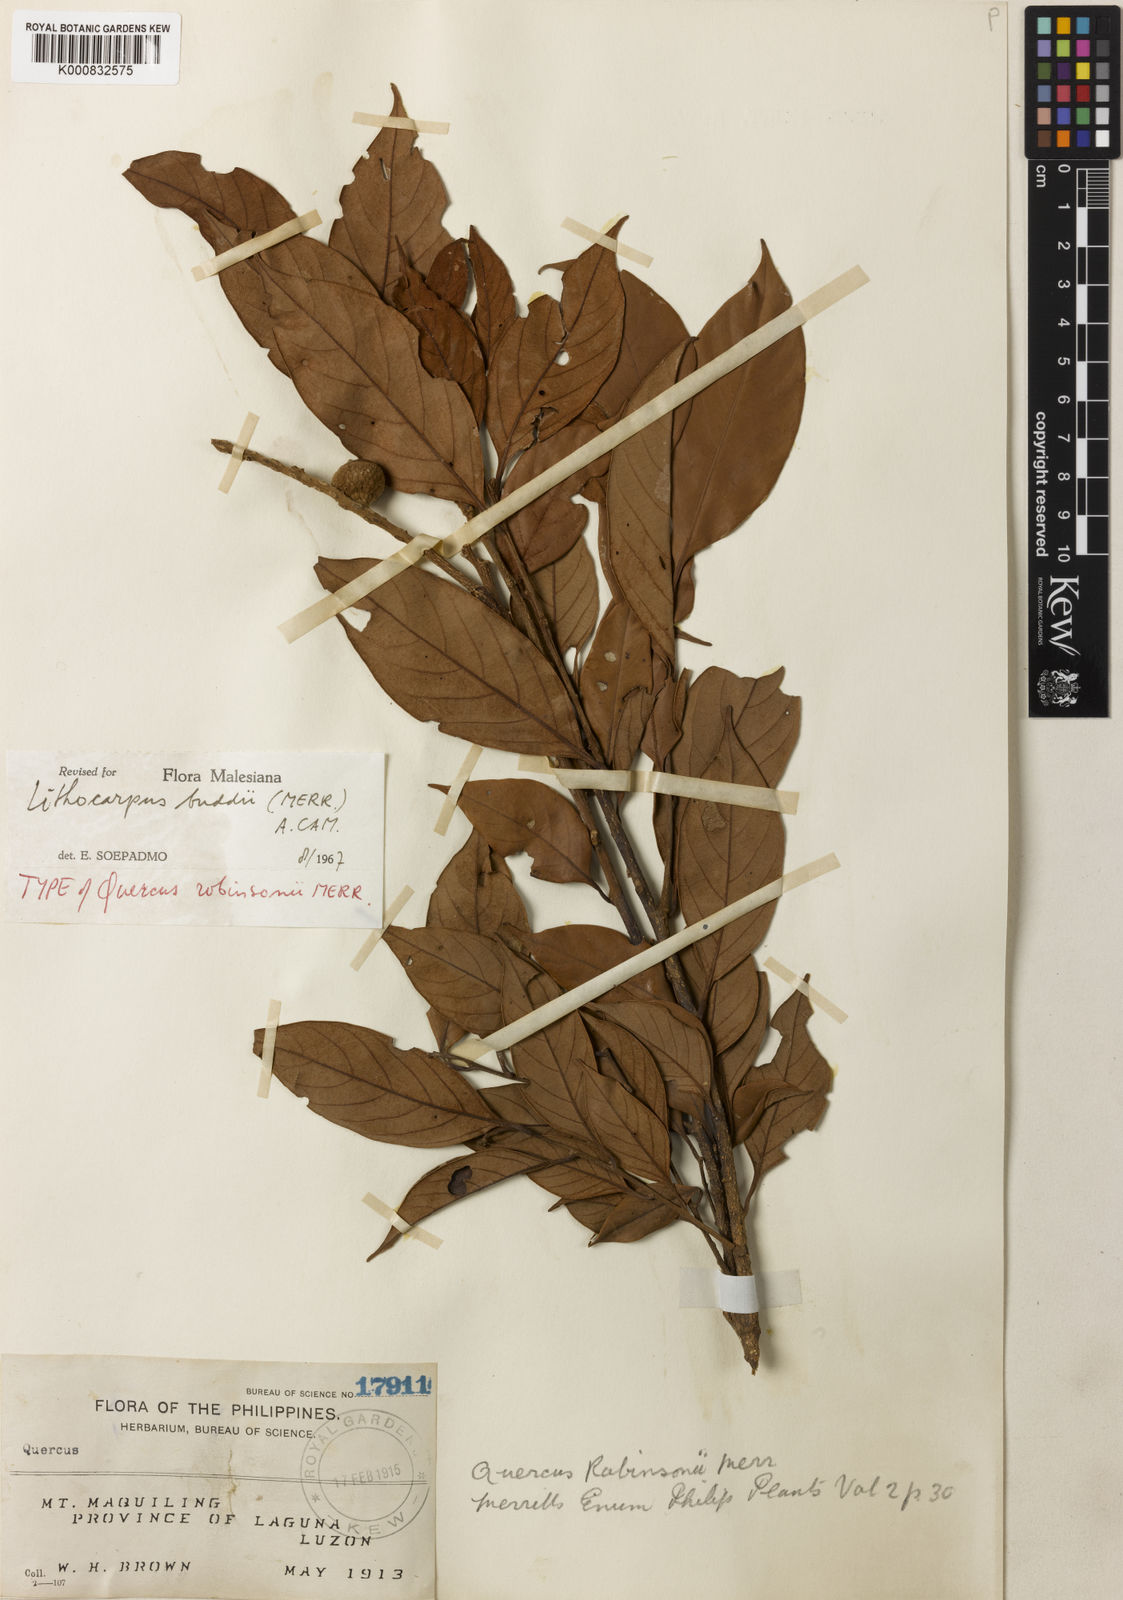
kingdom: Plantae
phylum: Tracheophyta
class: Magnoliopsida
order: Fagales
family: Fagaceae
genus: Lithocarpus
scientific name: Lithocarpus robinsonii
